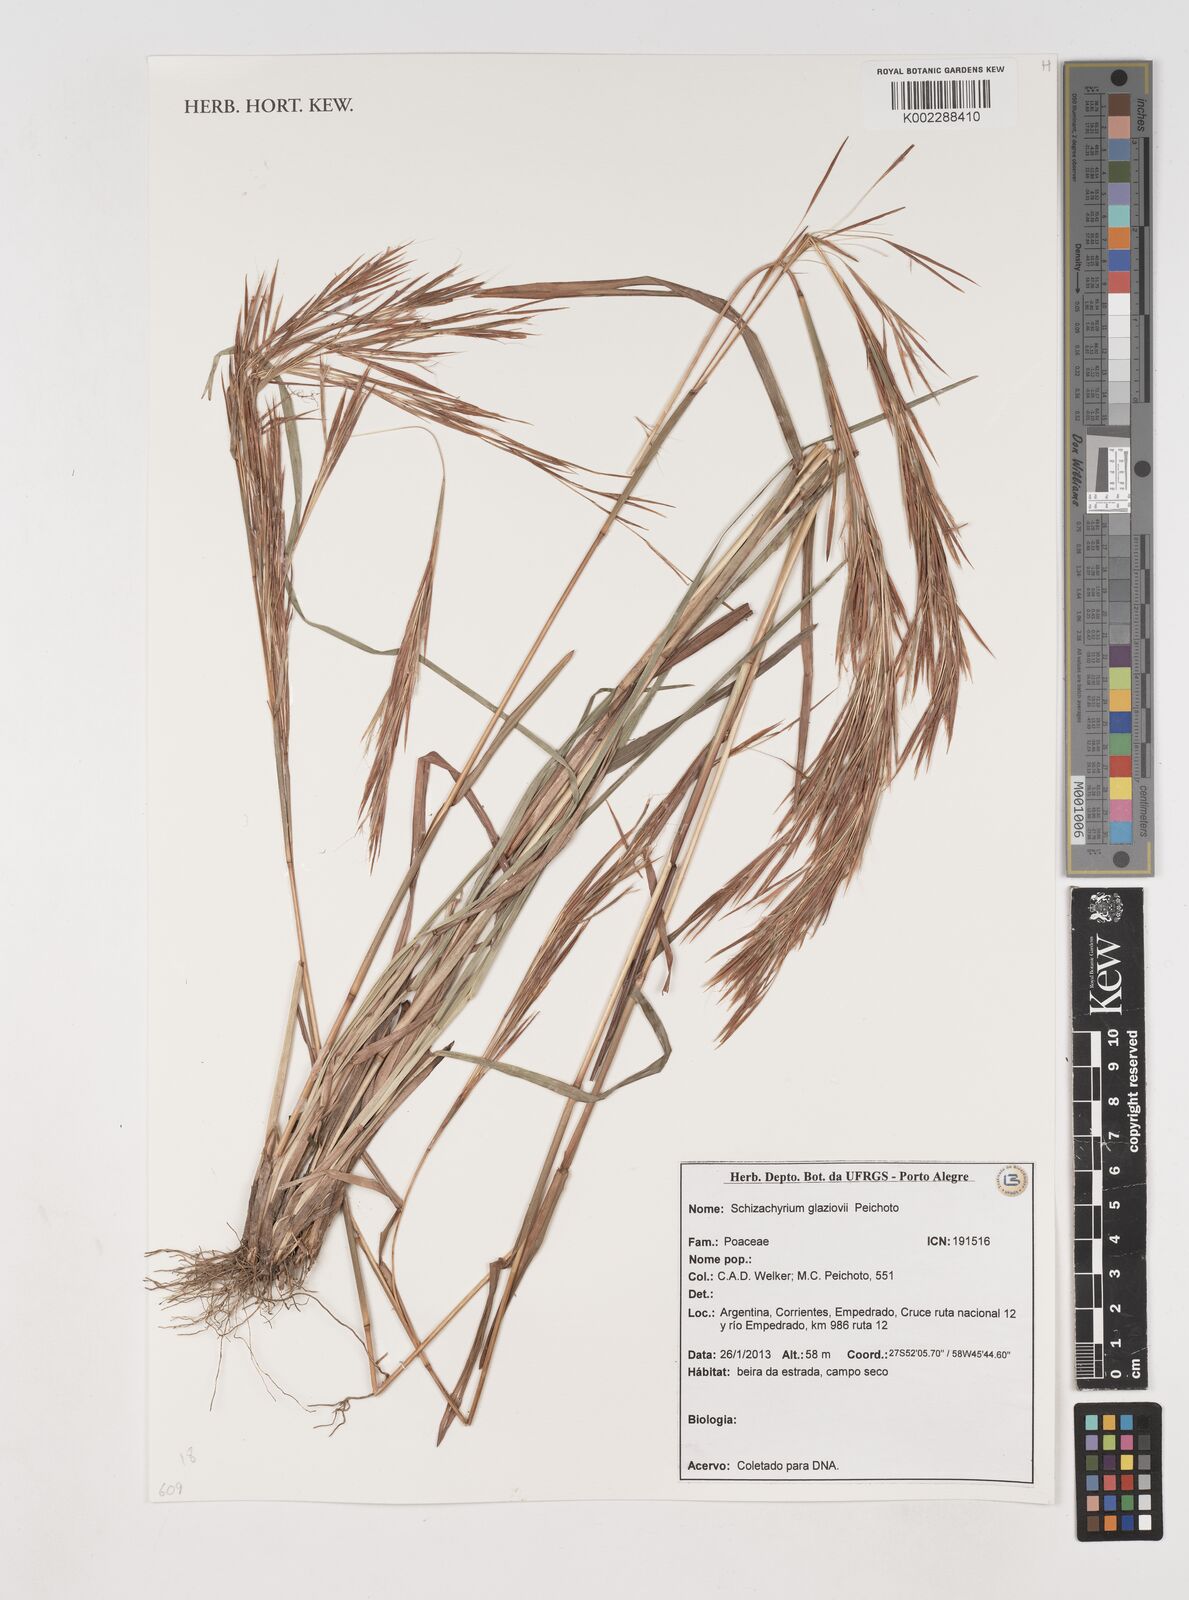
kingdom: Plantae
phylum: Tracheophyta
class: Liliopsida
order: Poales
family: Poaceae
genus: Schizachyrium
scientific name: Schizachyrium glaziovii
